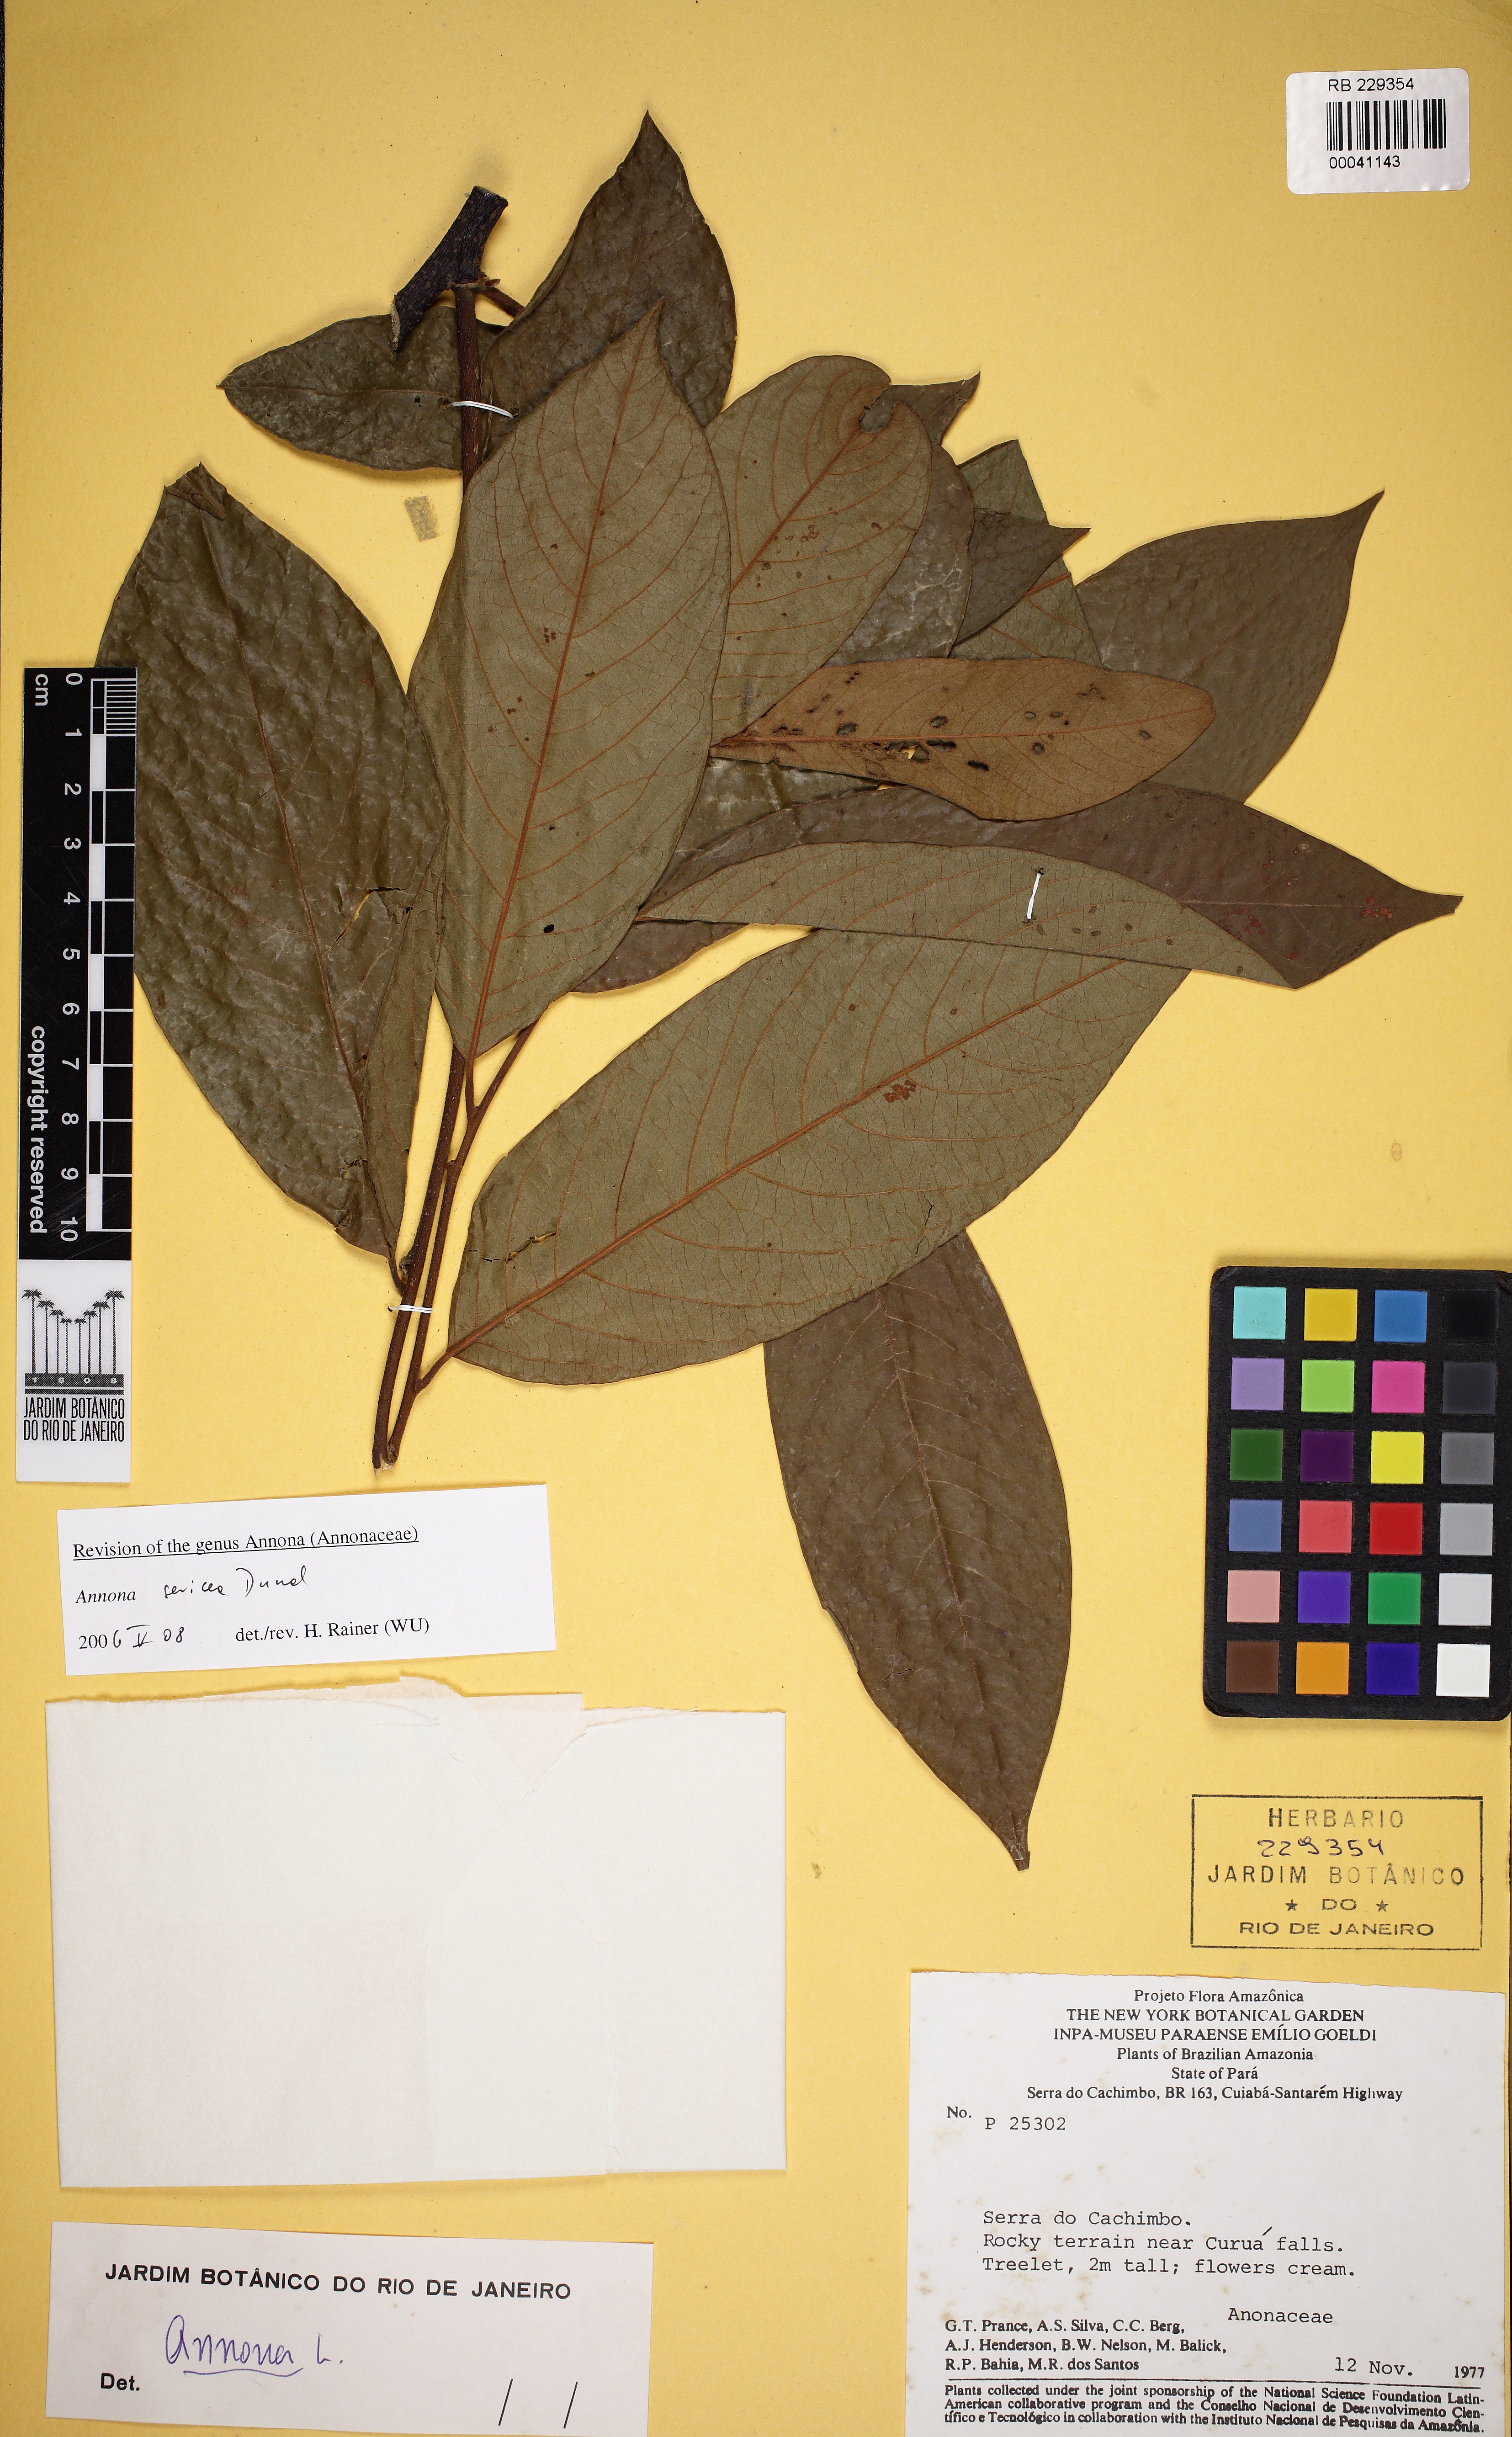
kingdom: Plantae
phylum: Tracheophyta
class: Magnoliopsida
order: Magnoliales
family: Annonaceae
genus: Annona
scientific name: Annona sericea
